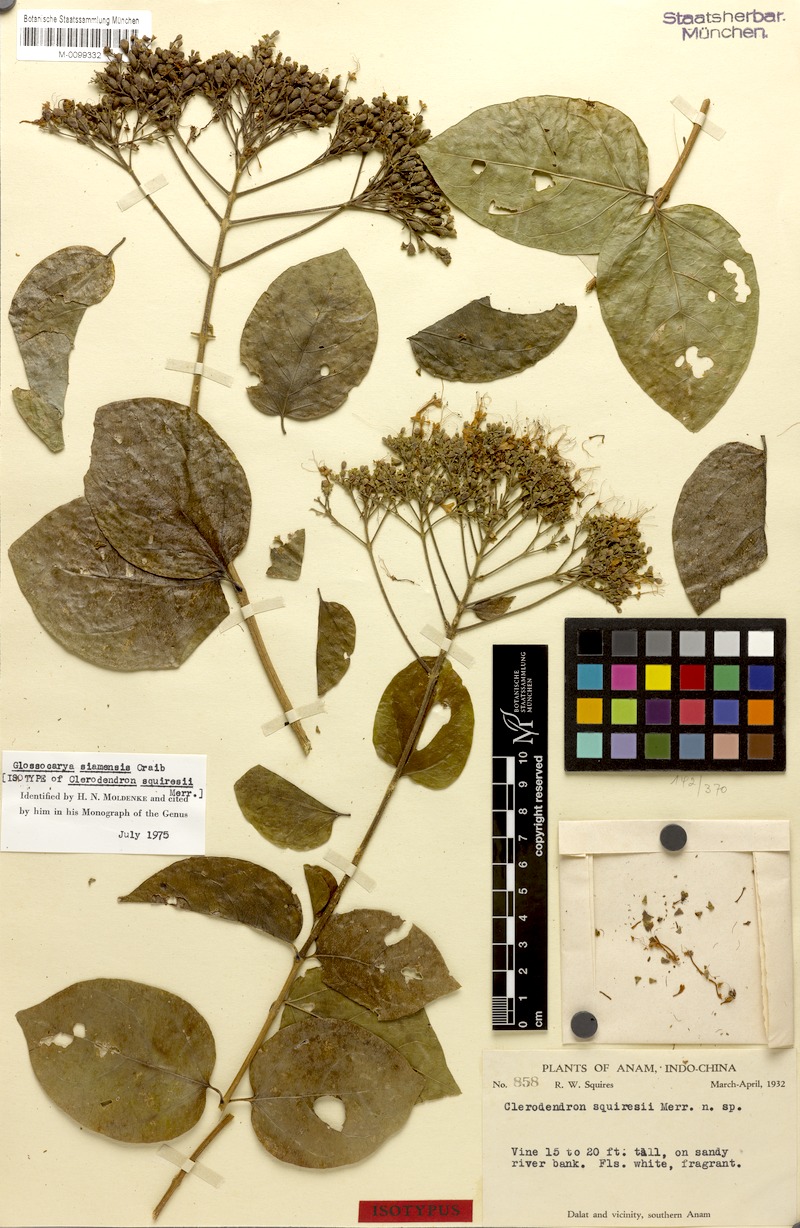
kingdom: Plantae
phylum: Tracheophyta
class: Magnoliopsida
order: Lamiales
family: Lamiaceae
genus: Glossocarya
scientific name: Glossocarya siamensis
